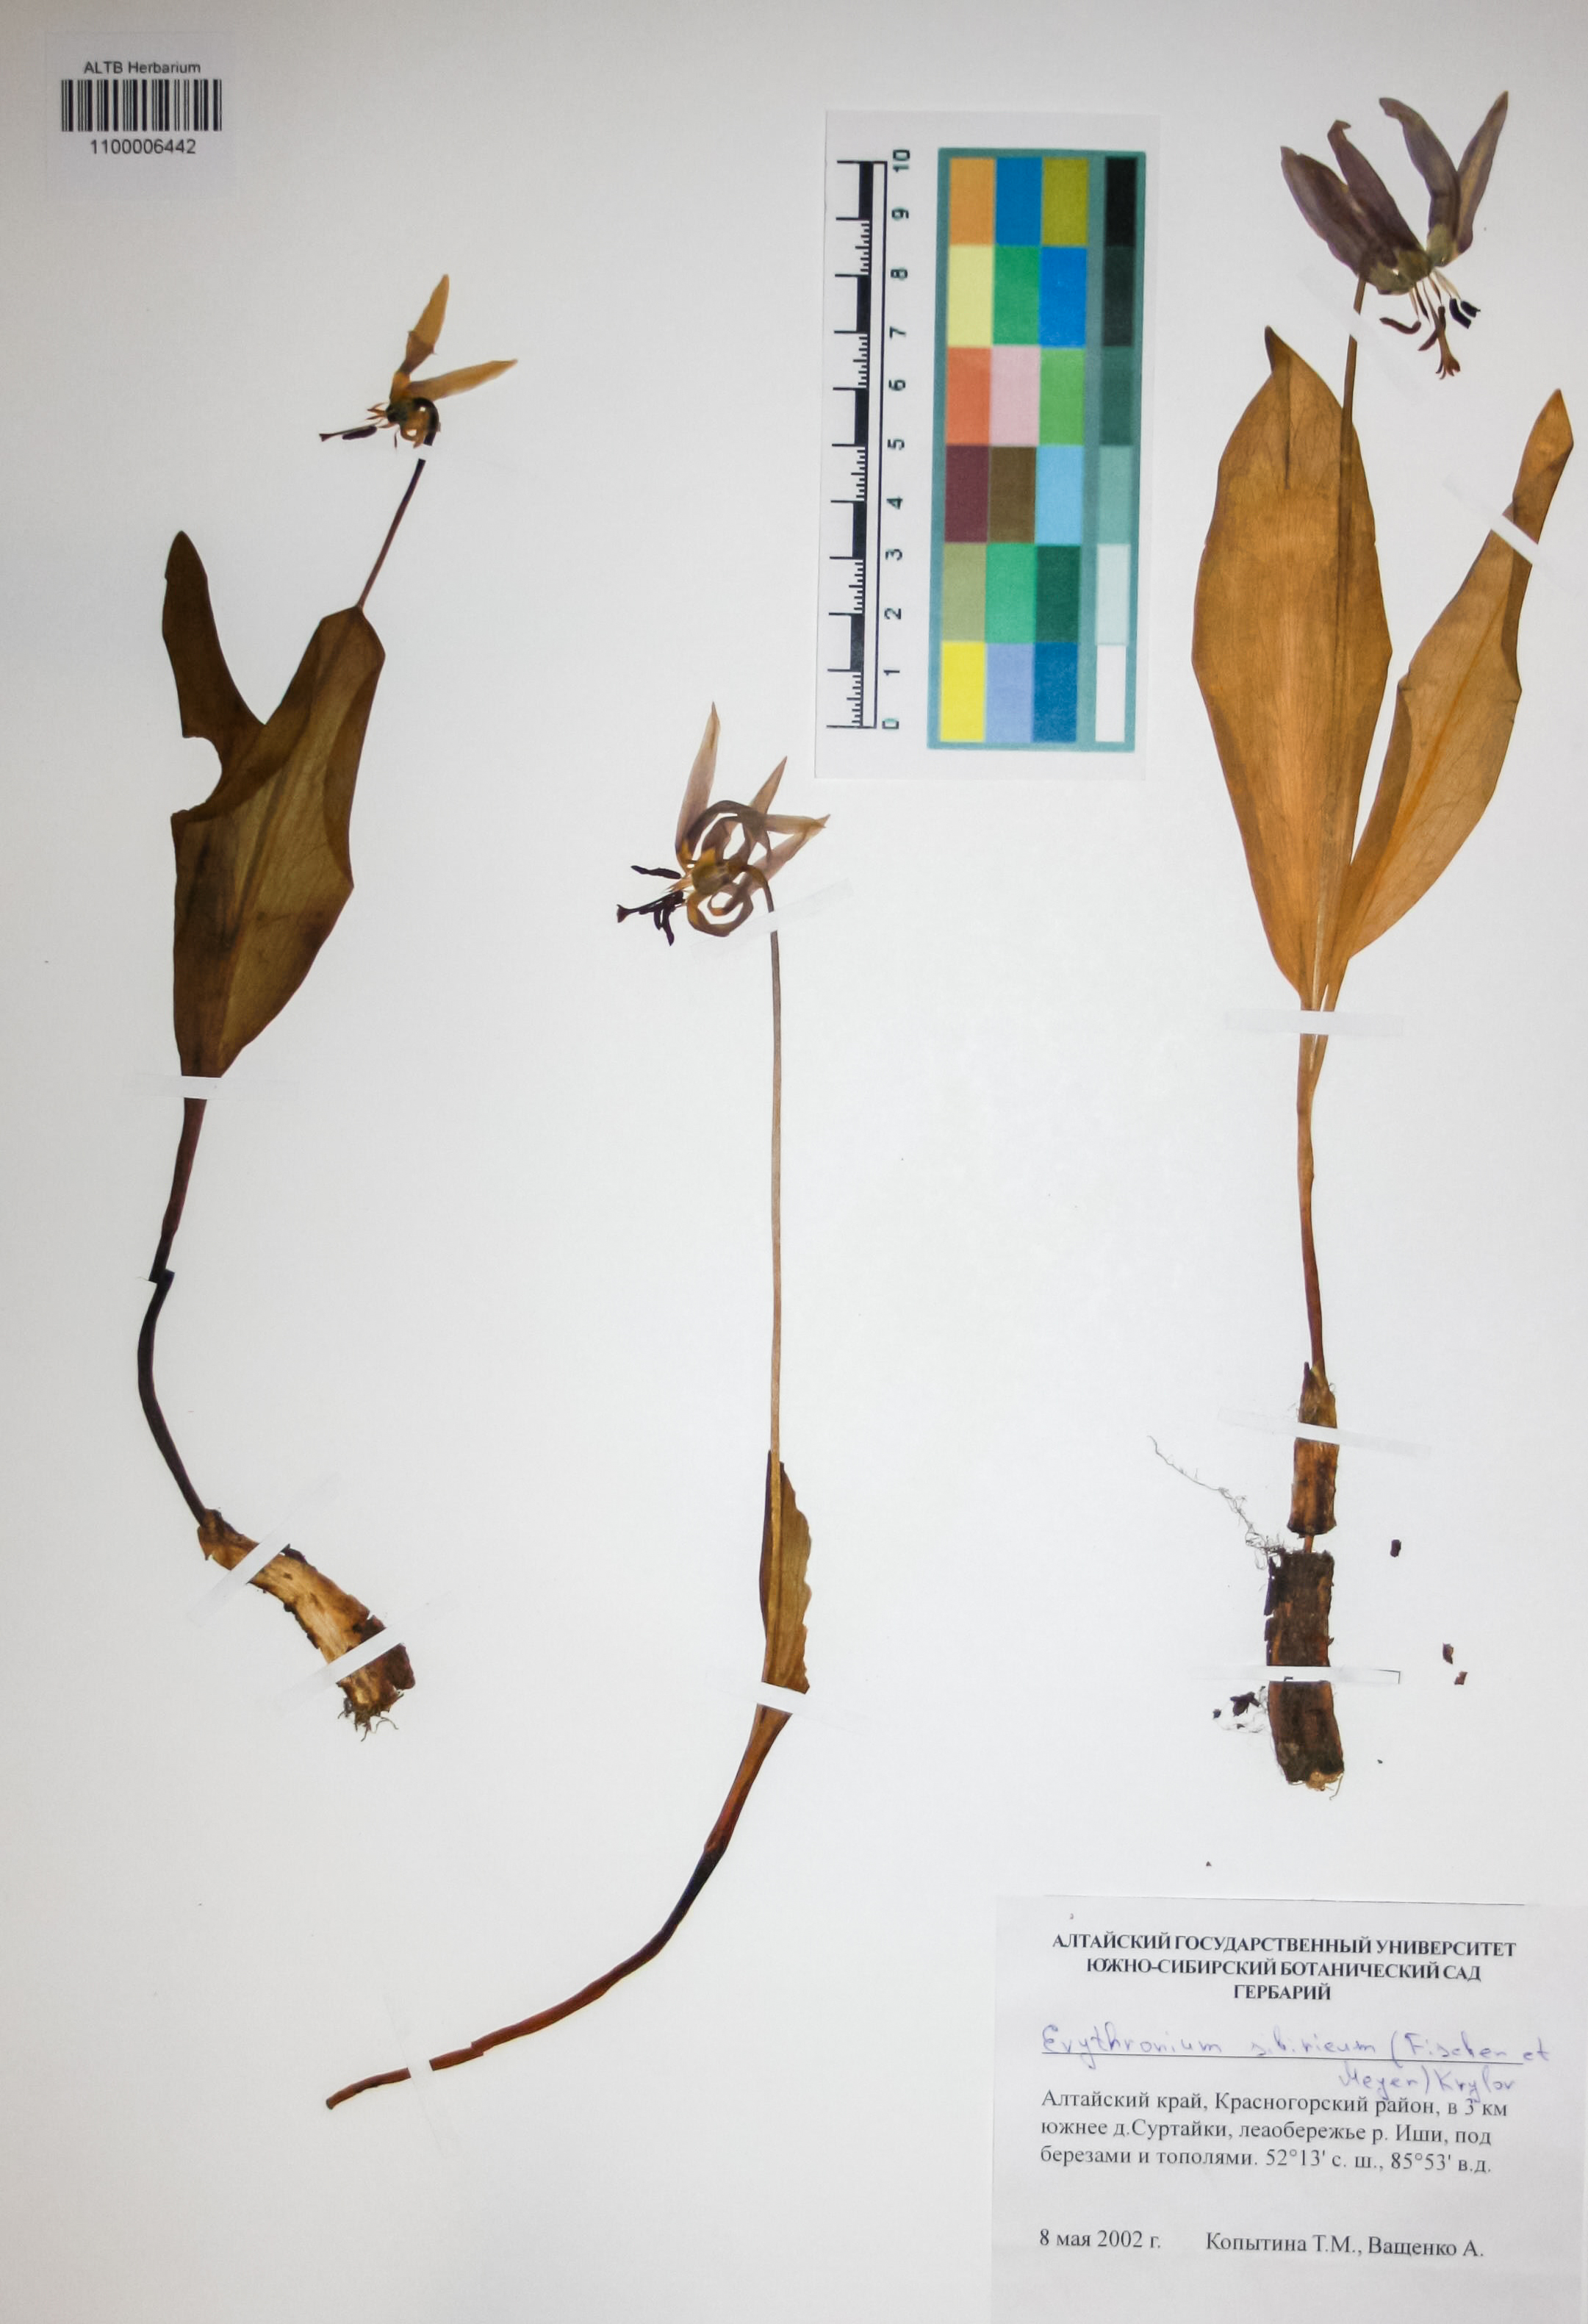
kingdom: Plantae
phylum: Tracheophyta
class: Liliopsida
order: Liliales
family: Liliaceae
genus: Erythronium
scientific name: Erythronium sibiricum
